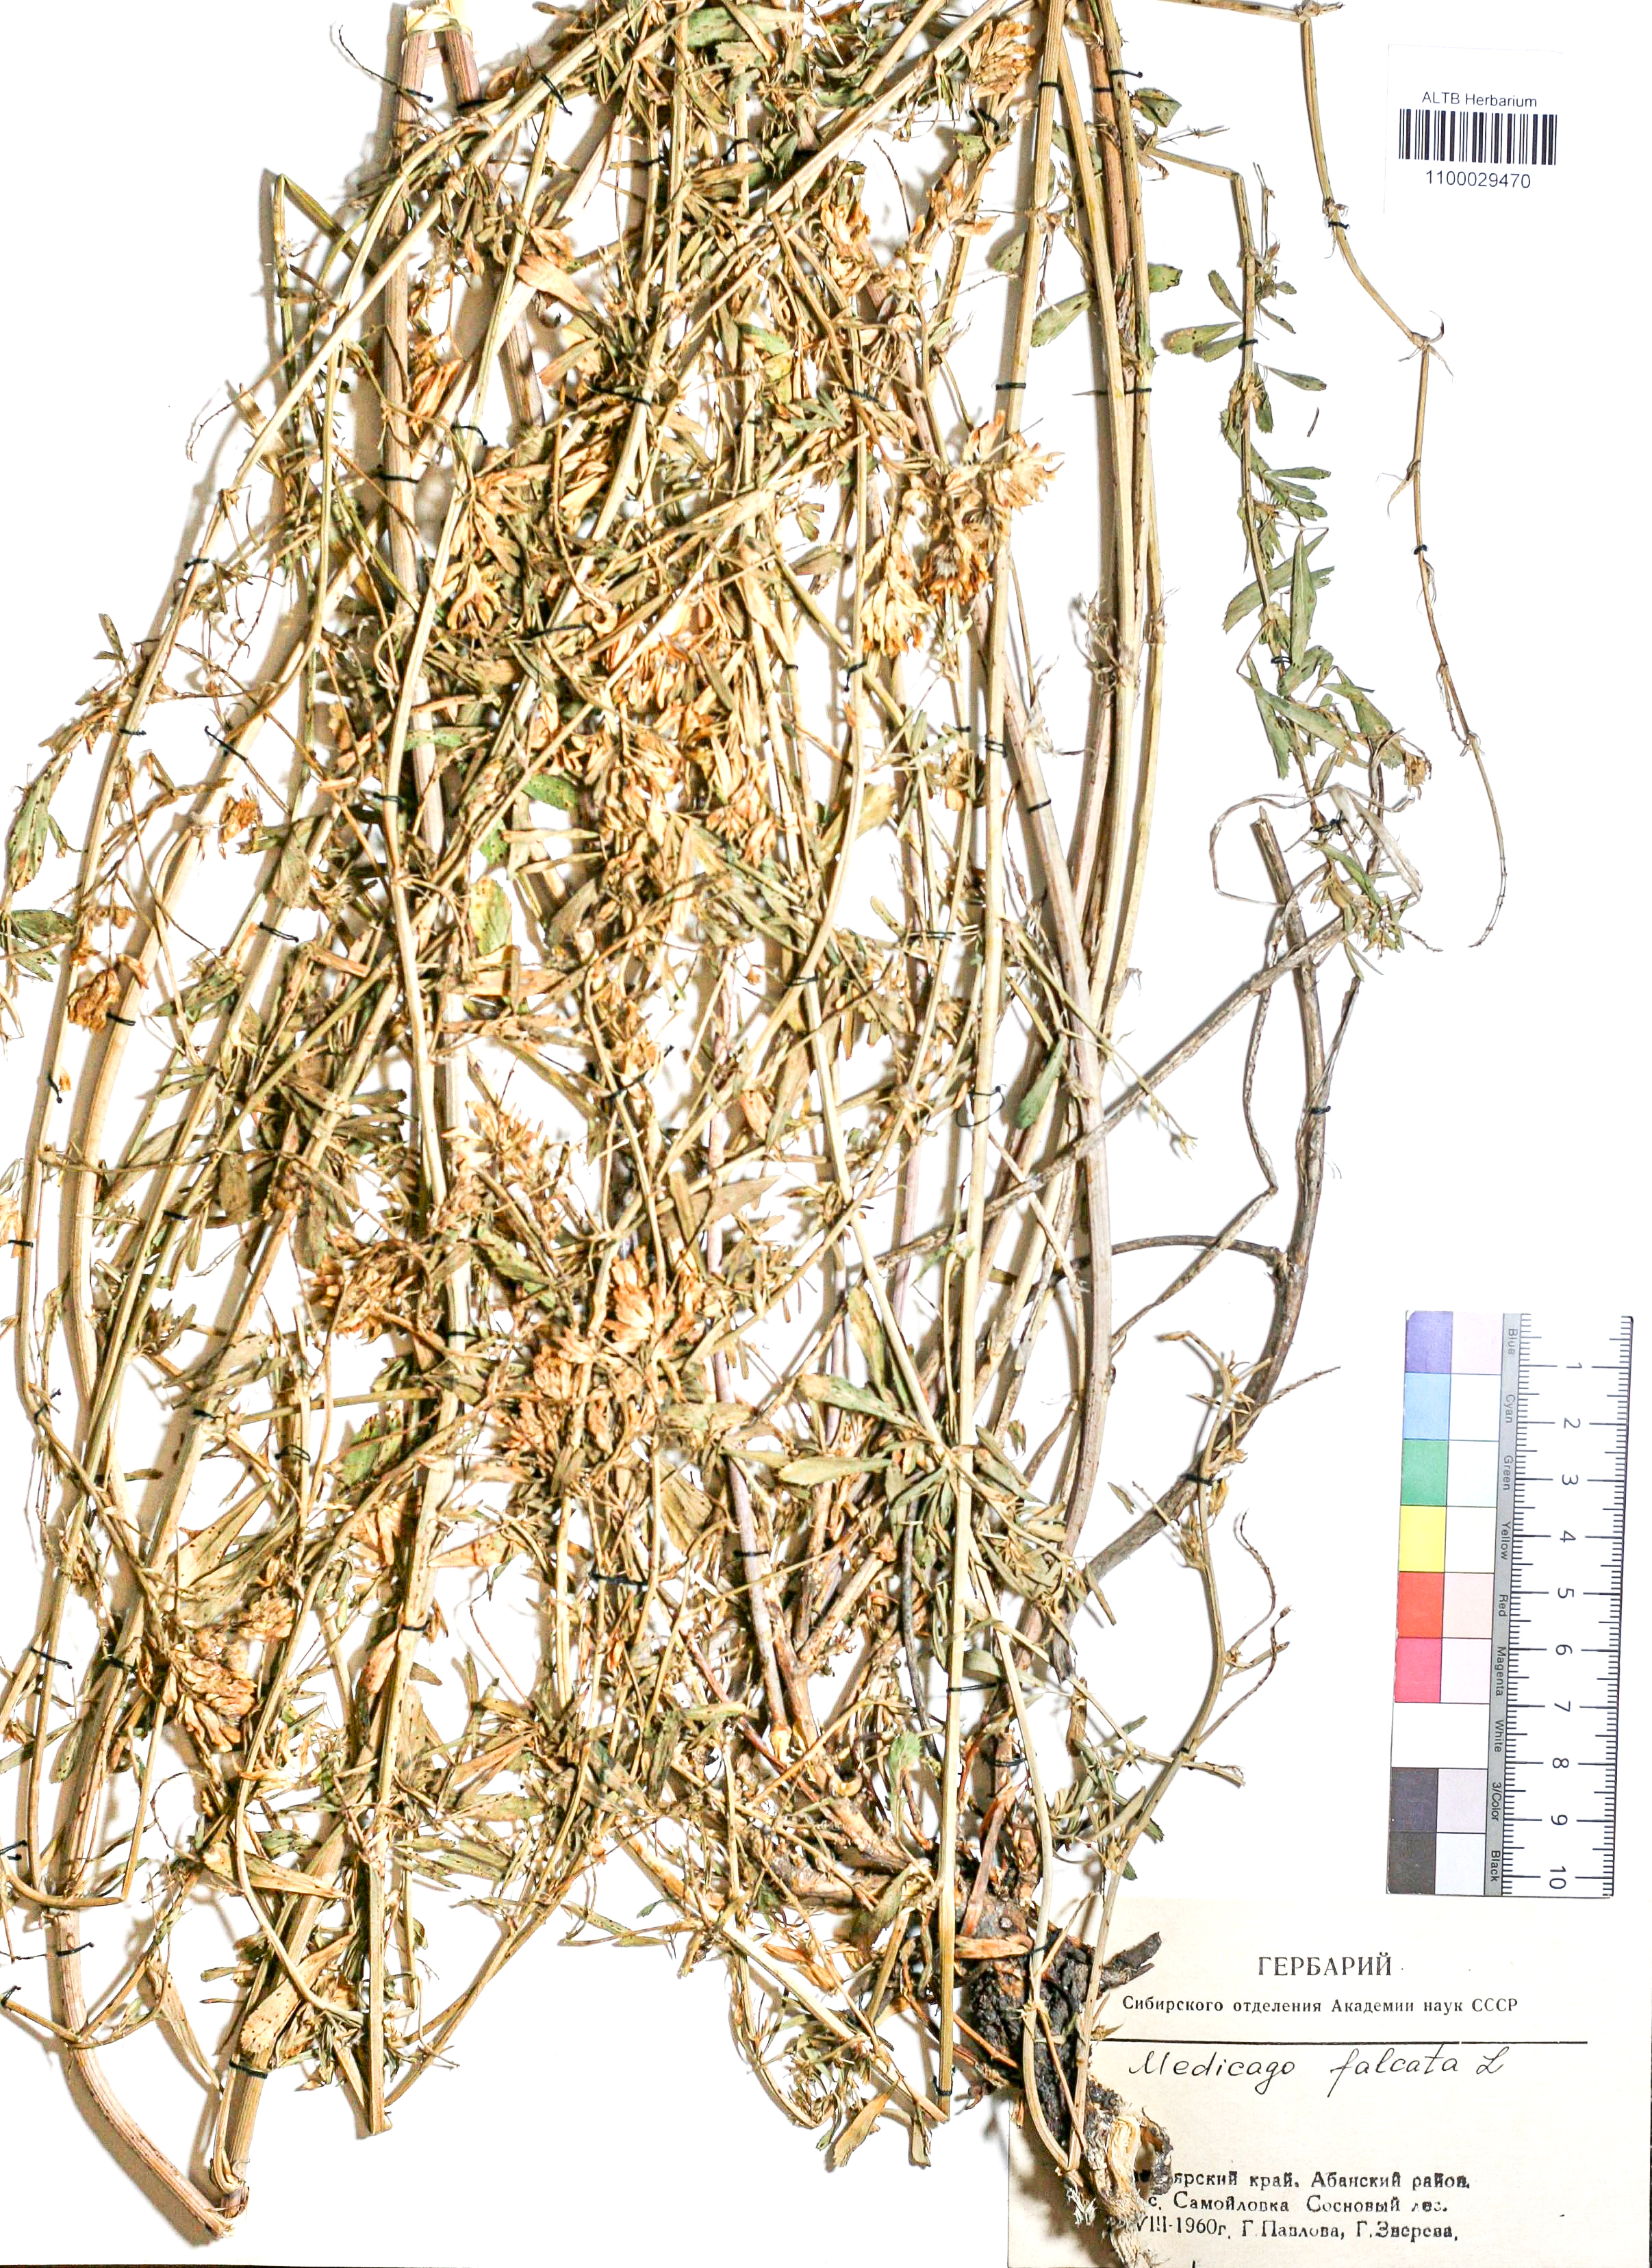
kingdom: Plantae
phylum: Tracheophyta
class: Magnoliopsida
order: Fabales
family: Fabaceae
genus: Medicago
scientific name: Medicago falcata
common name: Sickle medick
